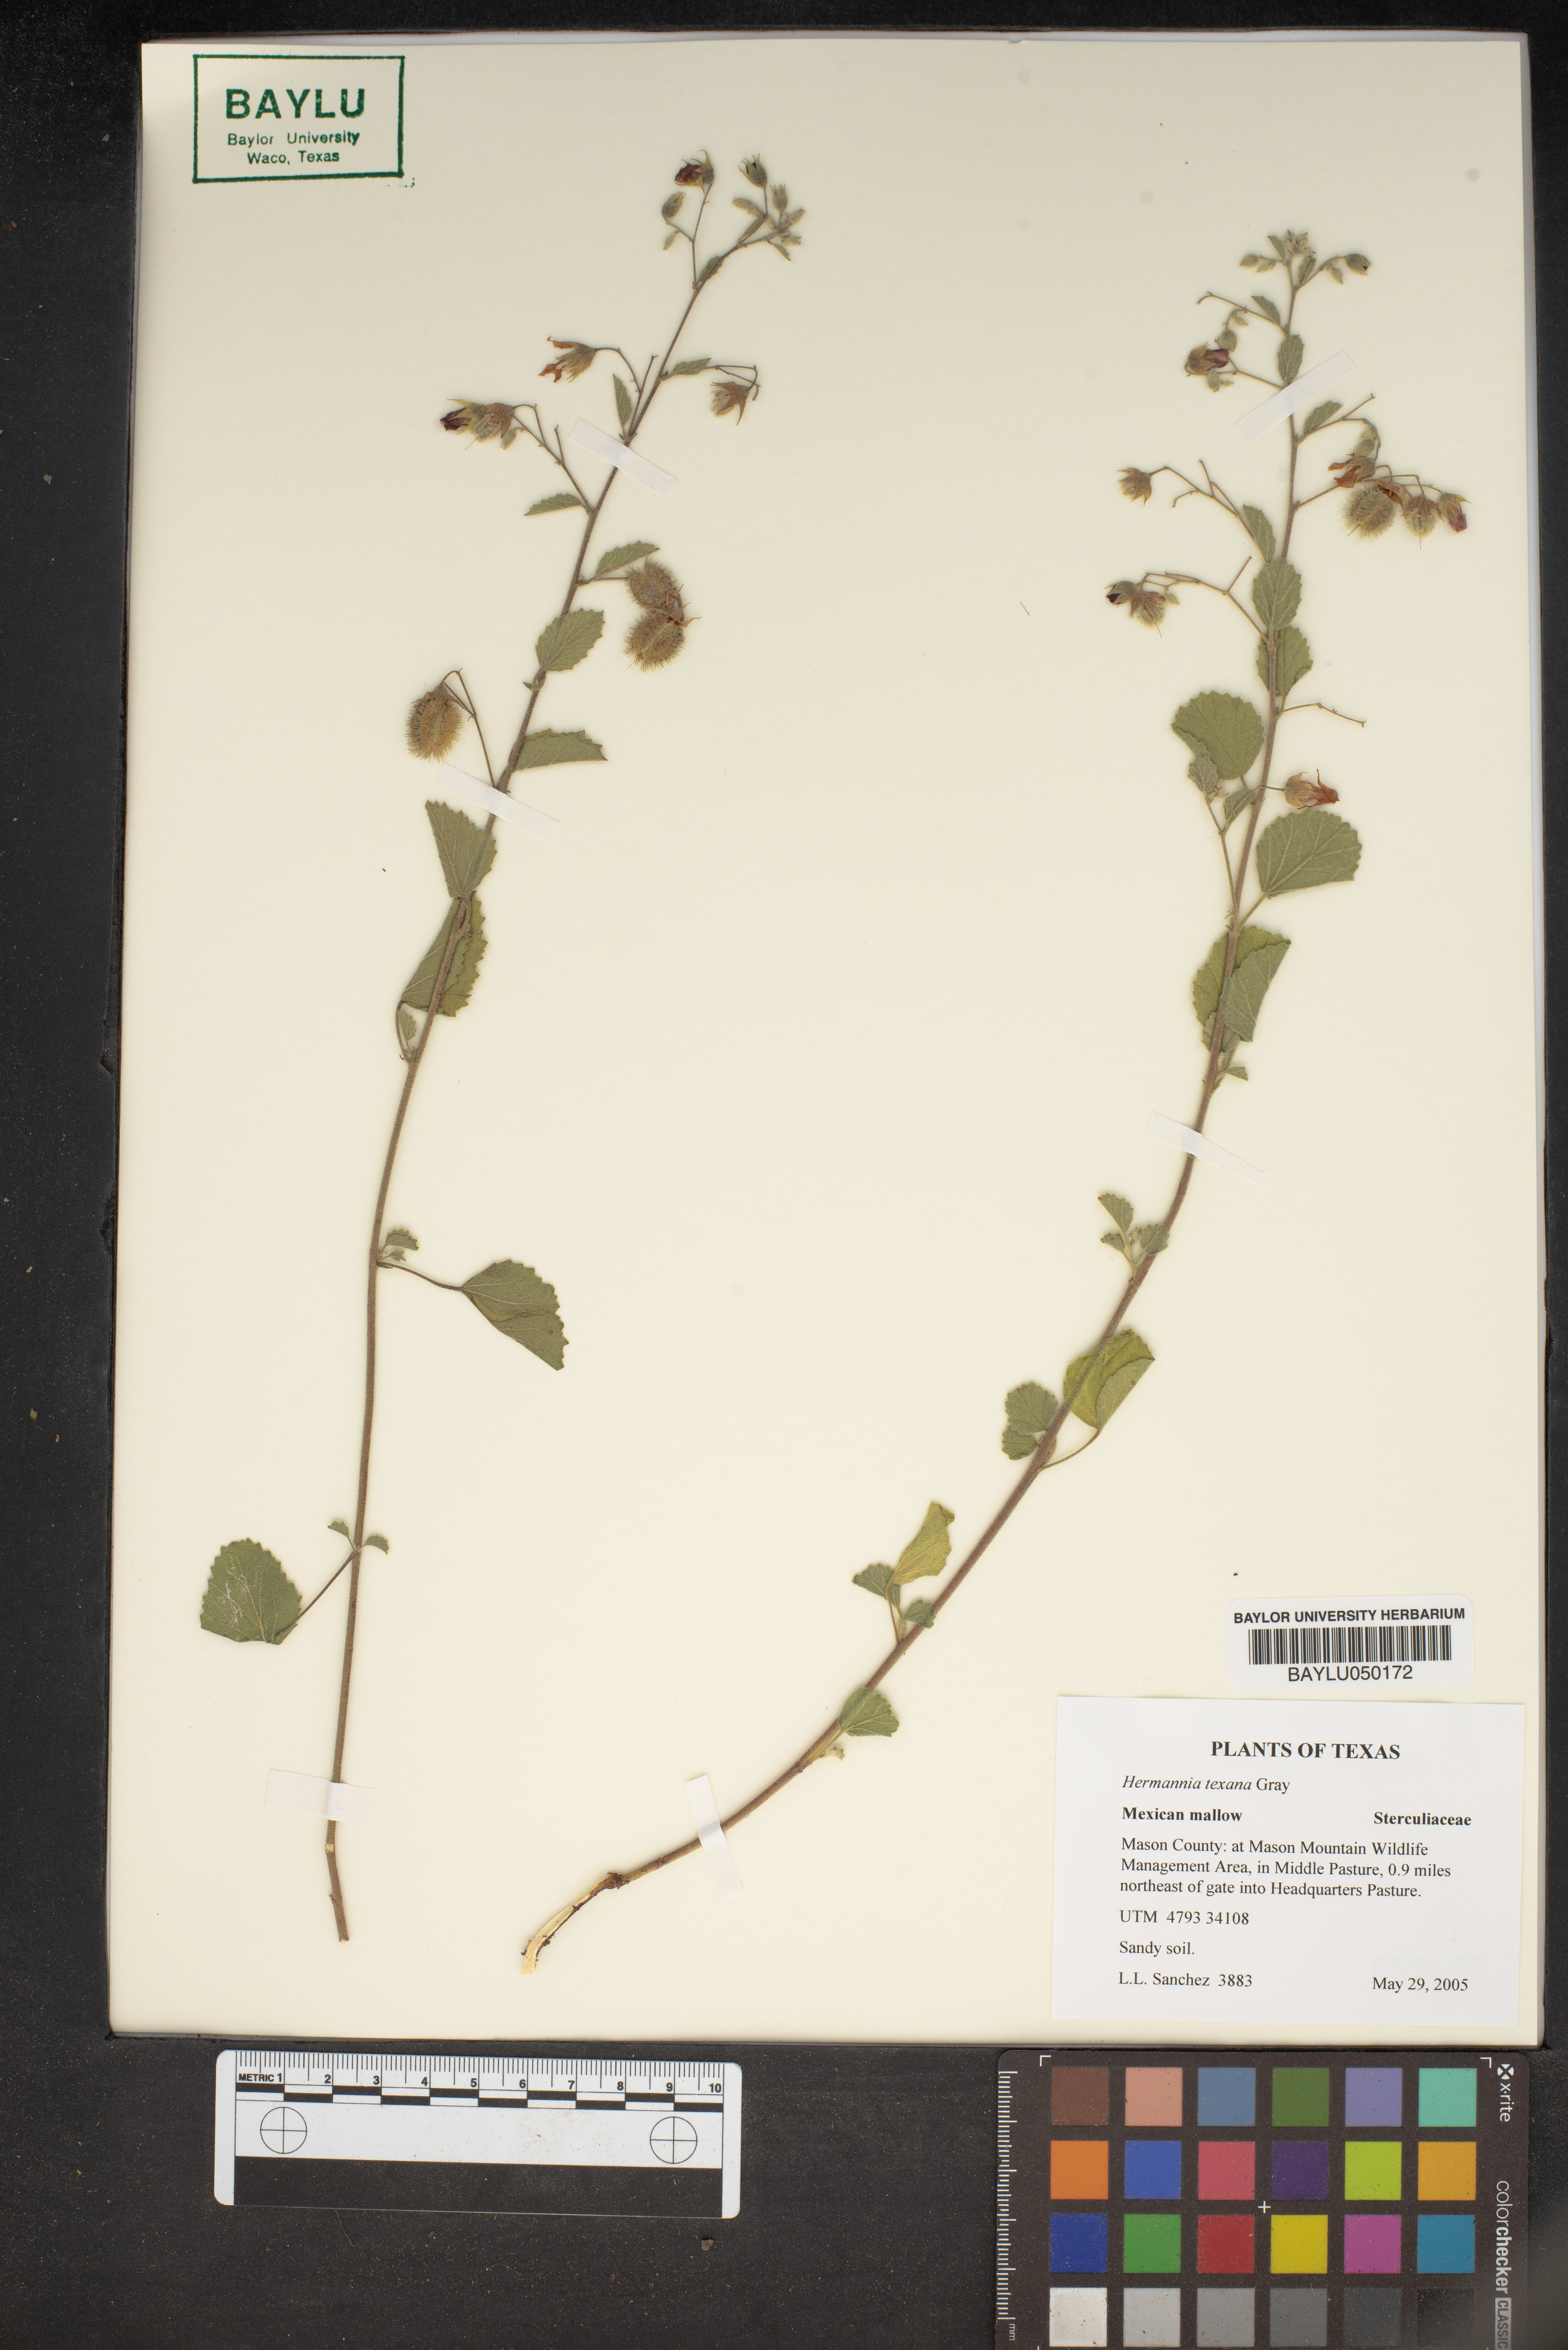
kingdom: Plantae
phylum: Tracheophyta
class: Magnoliopsida
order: Malvales
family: Malvaceae
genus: Hermannia
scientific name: Hermannia texana
